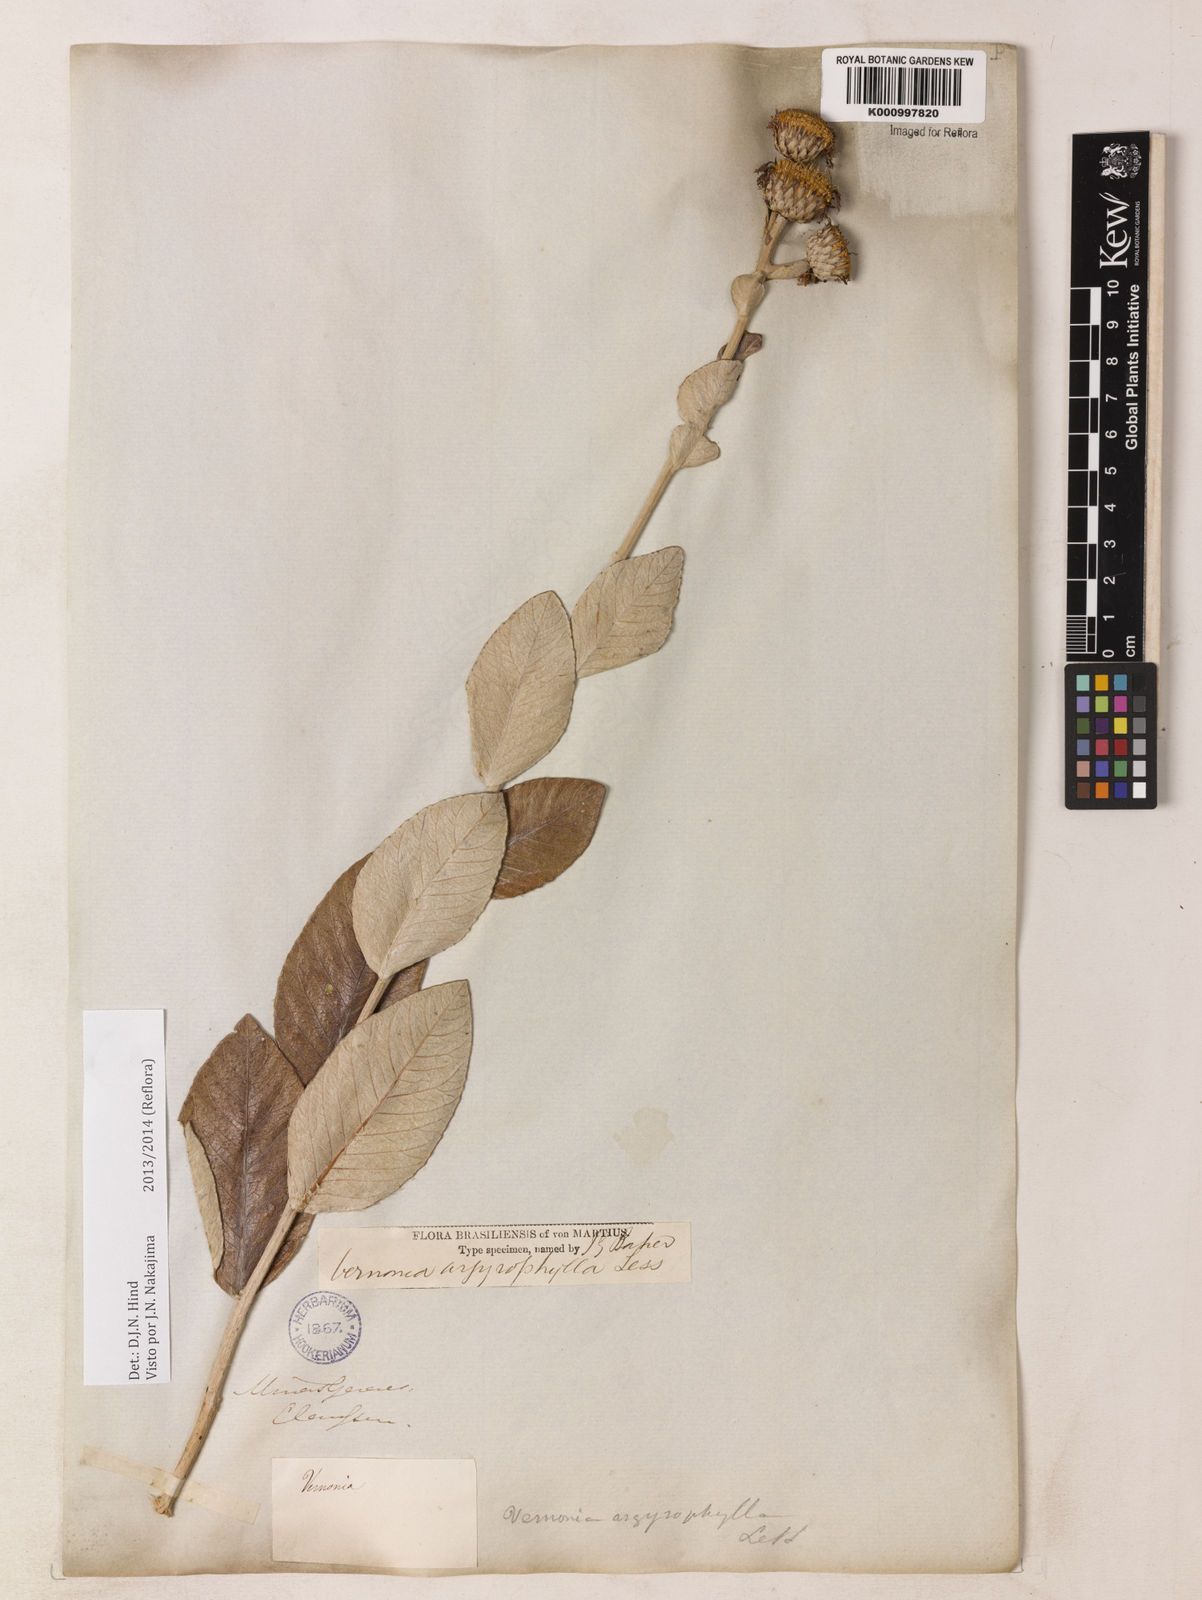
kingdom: Plantae
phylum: Tracheophyta
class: Magnoliopsida
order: Asterales
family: Asteraceae
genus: Lessingianthus
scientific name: Lessingianthus argyrophyllus
